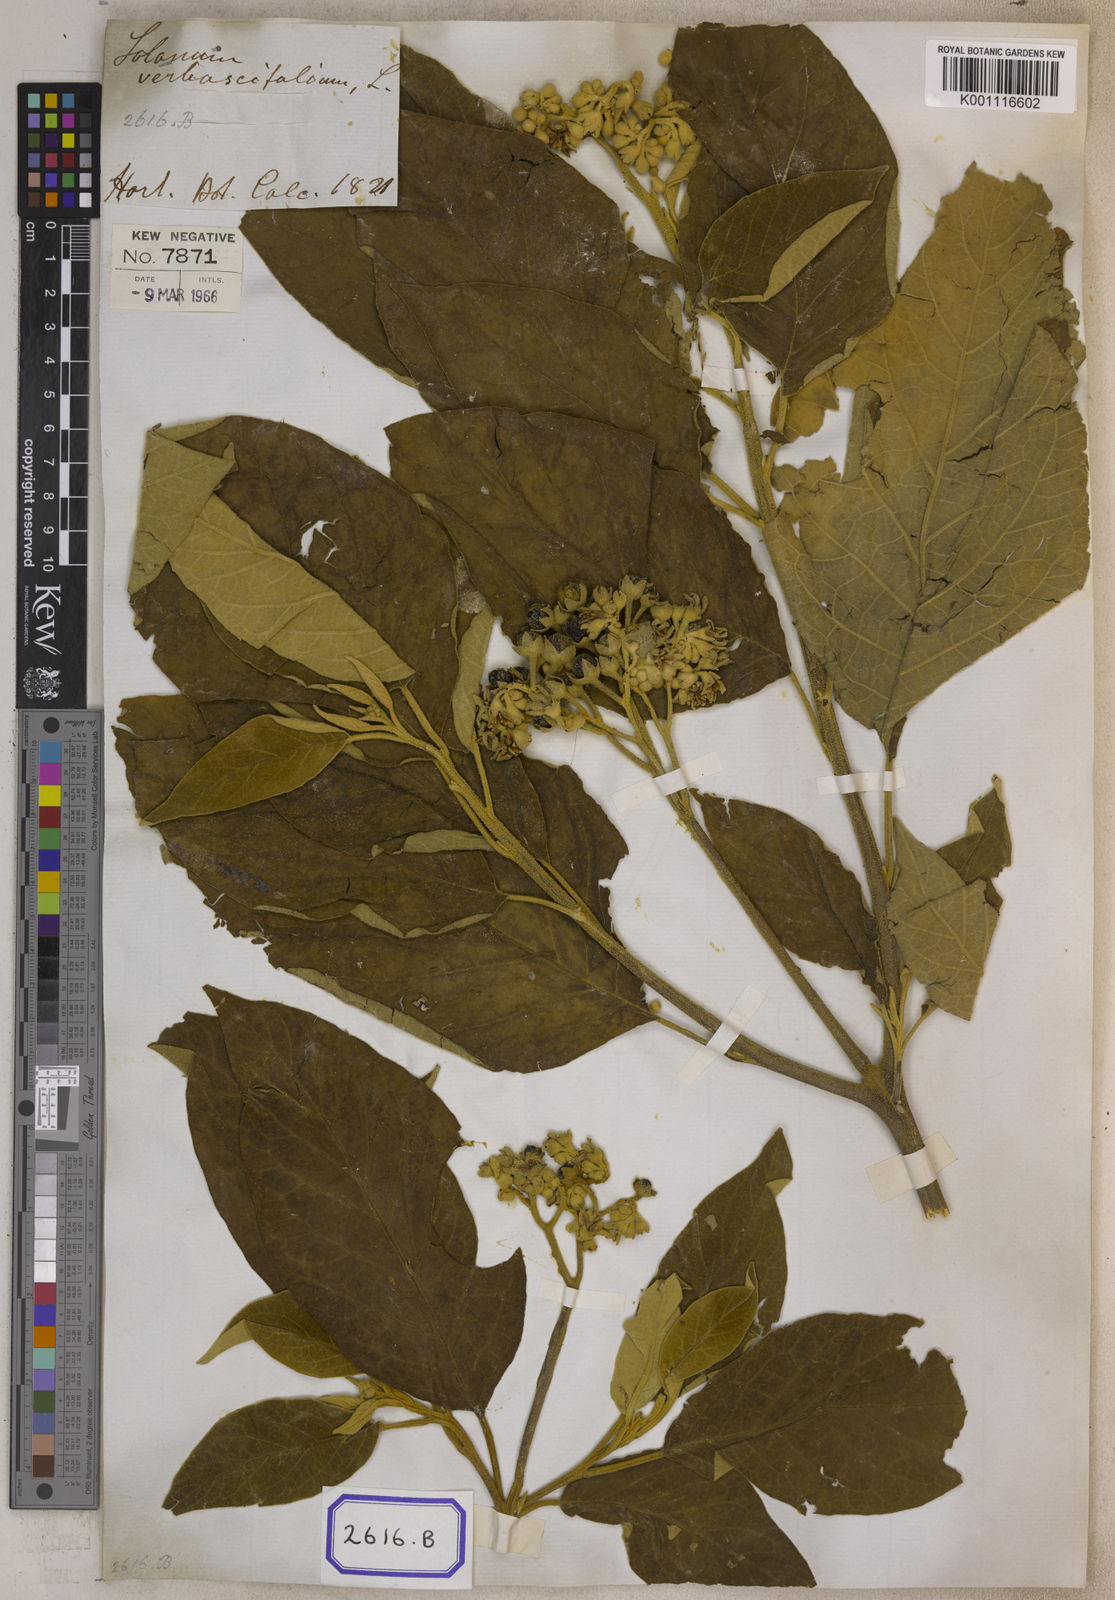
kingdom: Plantae
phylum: Tracheophyta
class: Magnoliopsida
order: Solanales
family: Solanaceae
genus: Solanum
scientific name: Solanum donianum
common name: Mullein nightshade
